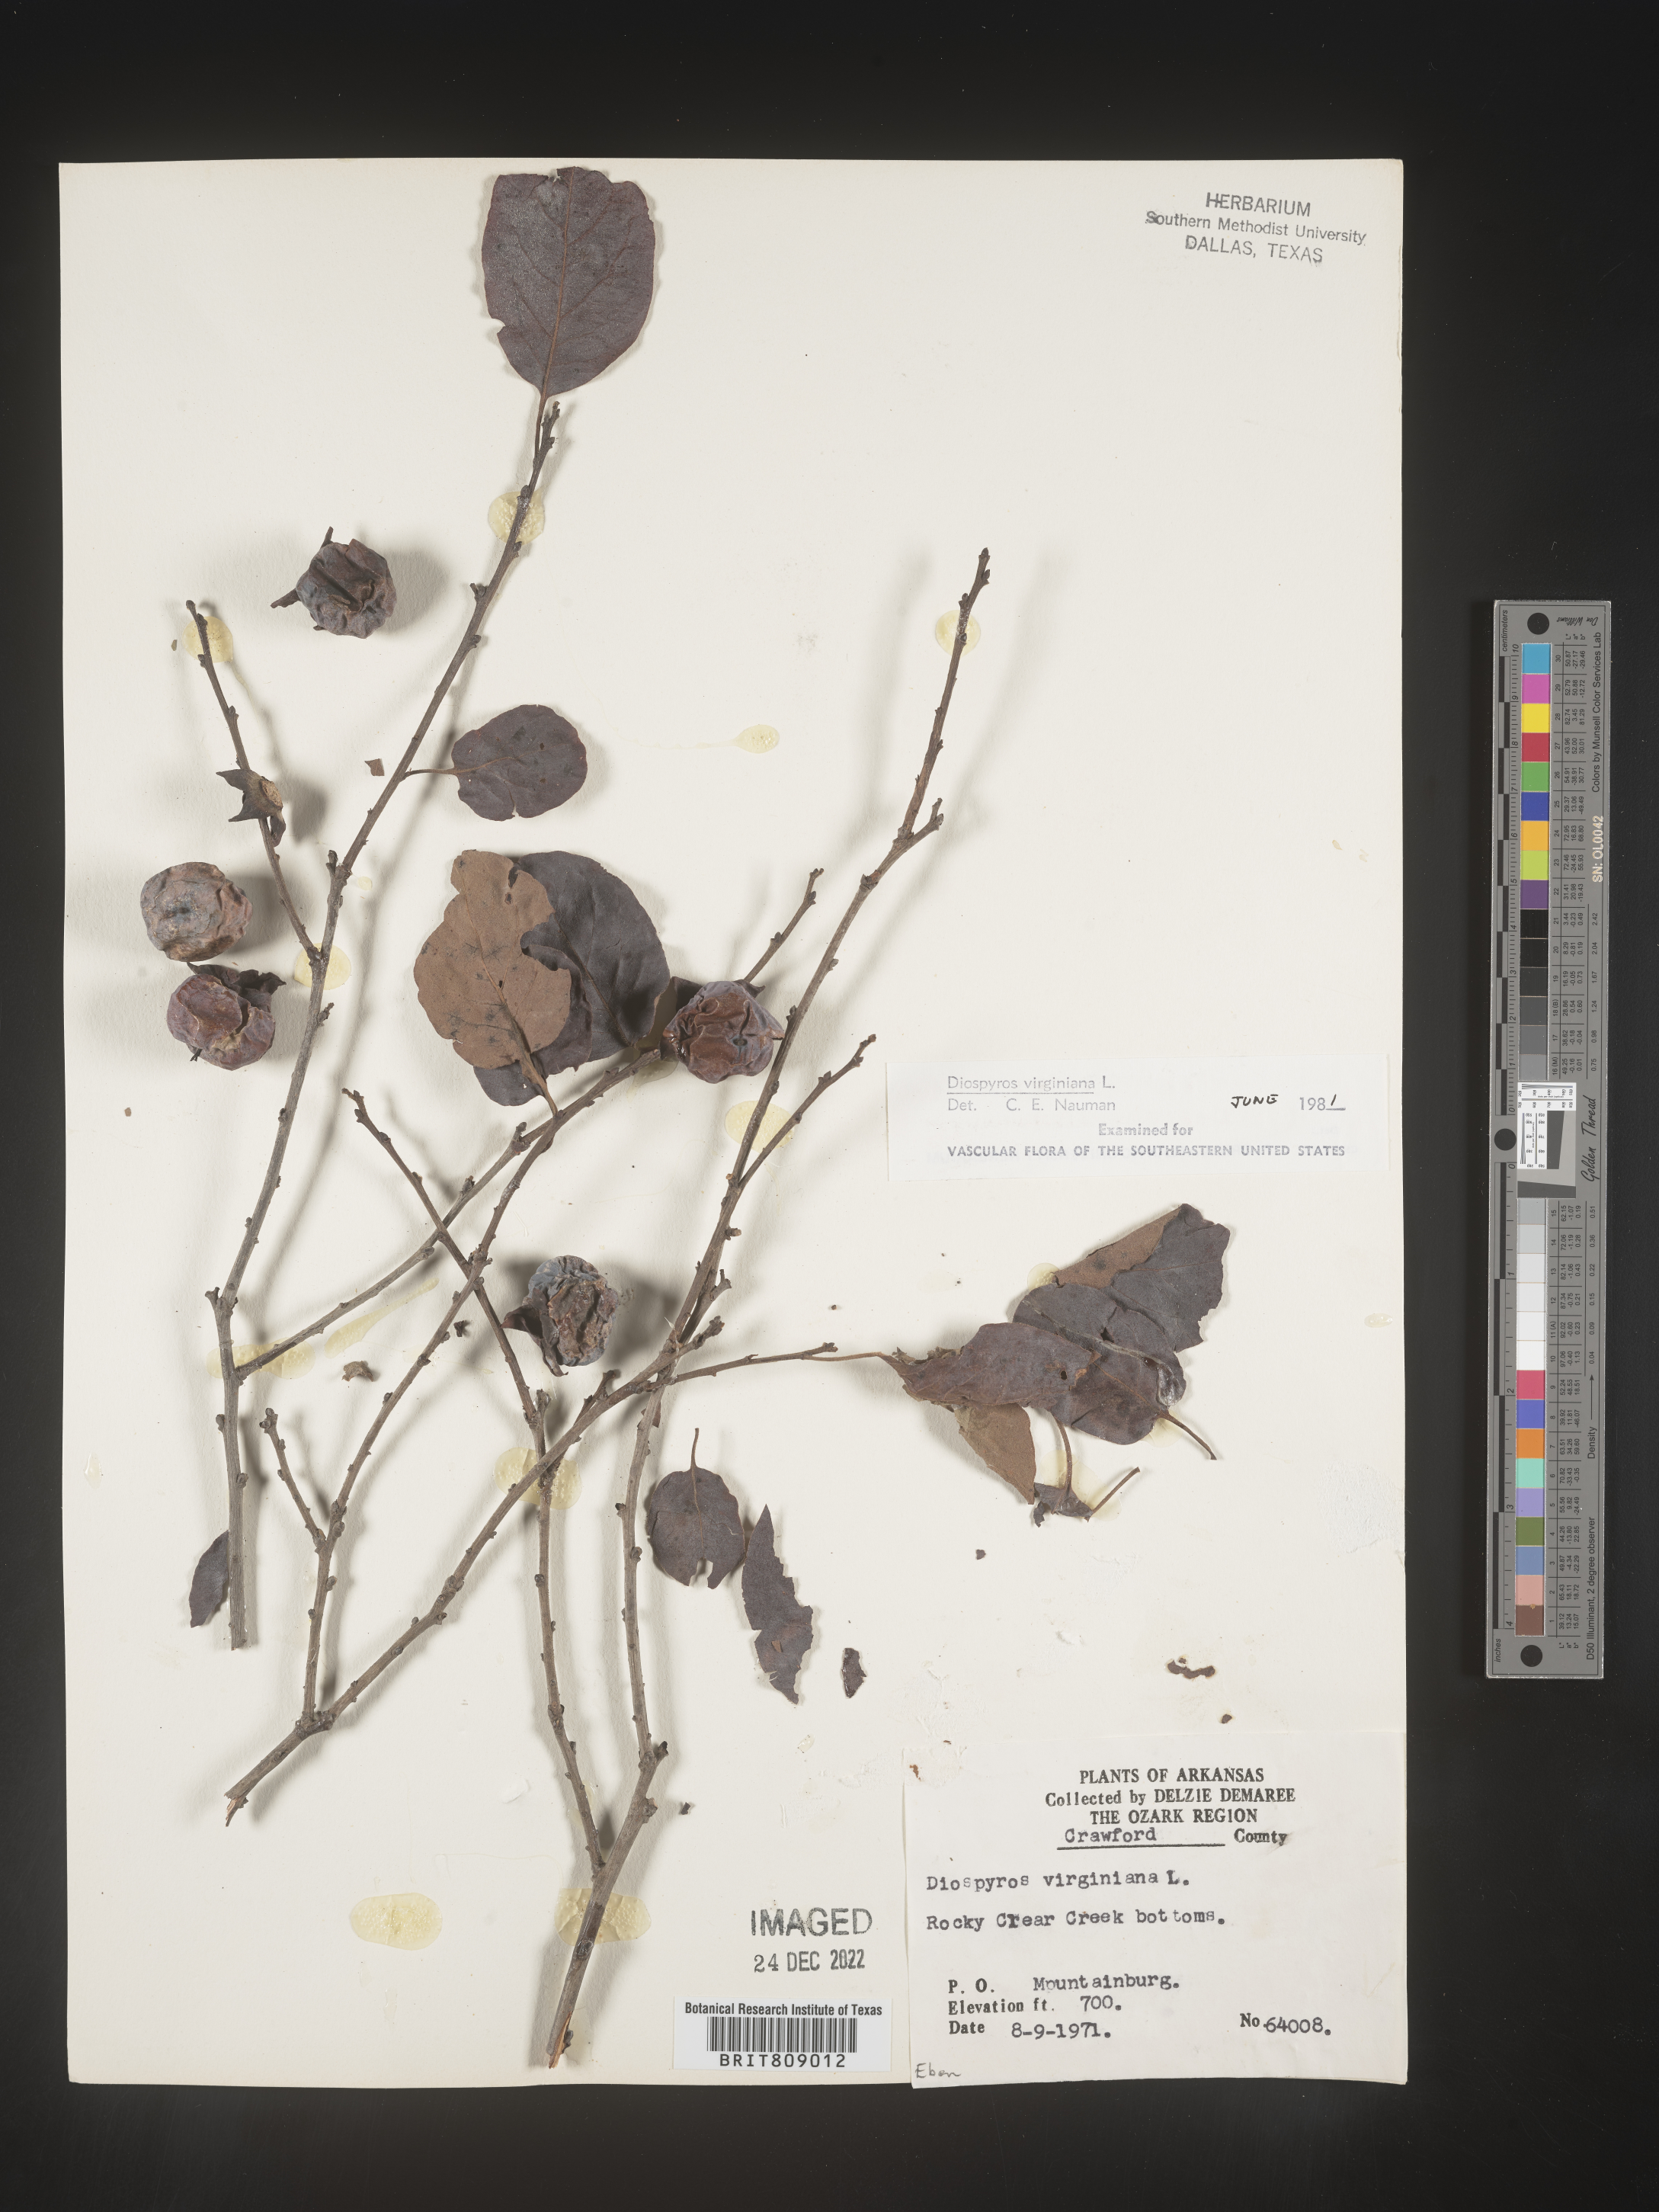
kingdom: Plantae
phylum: Tracheophyta
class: Magnoliopsida
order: Ericales
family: Ebenaceae
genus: Diospyros
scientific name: Diospyros virginiana
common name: Persimmon
